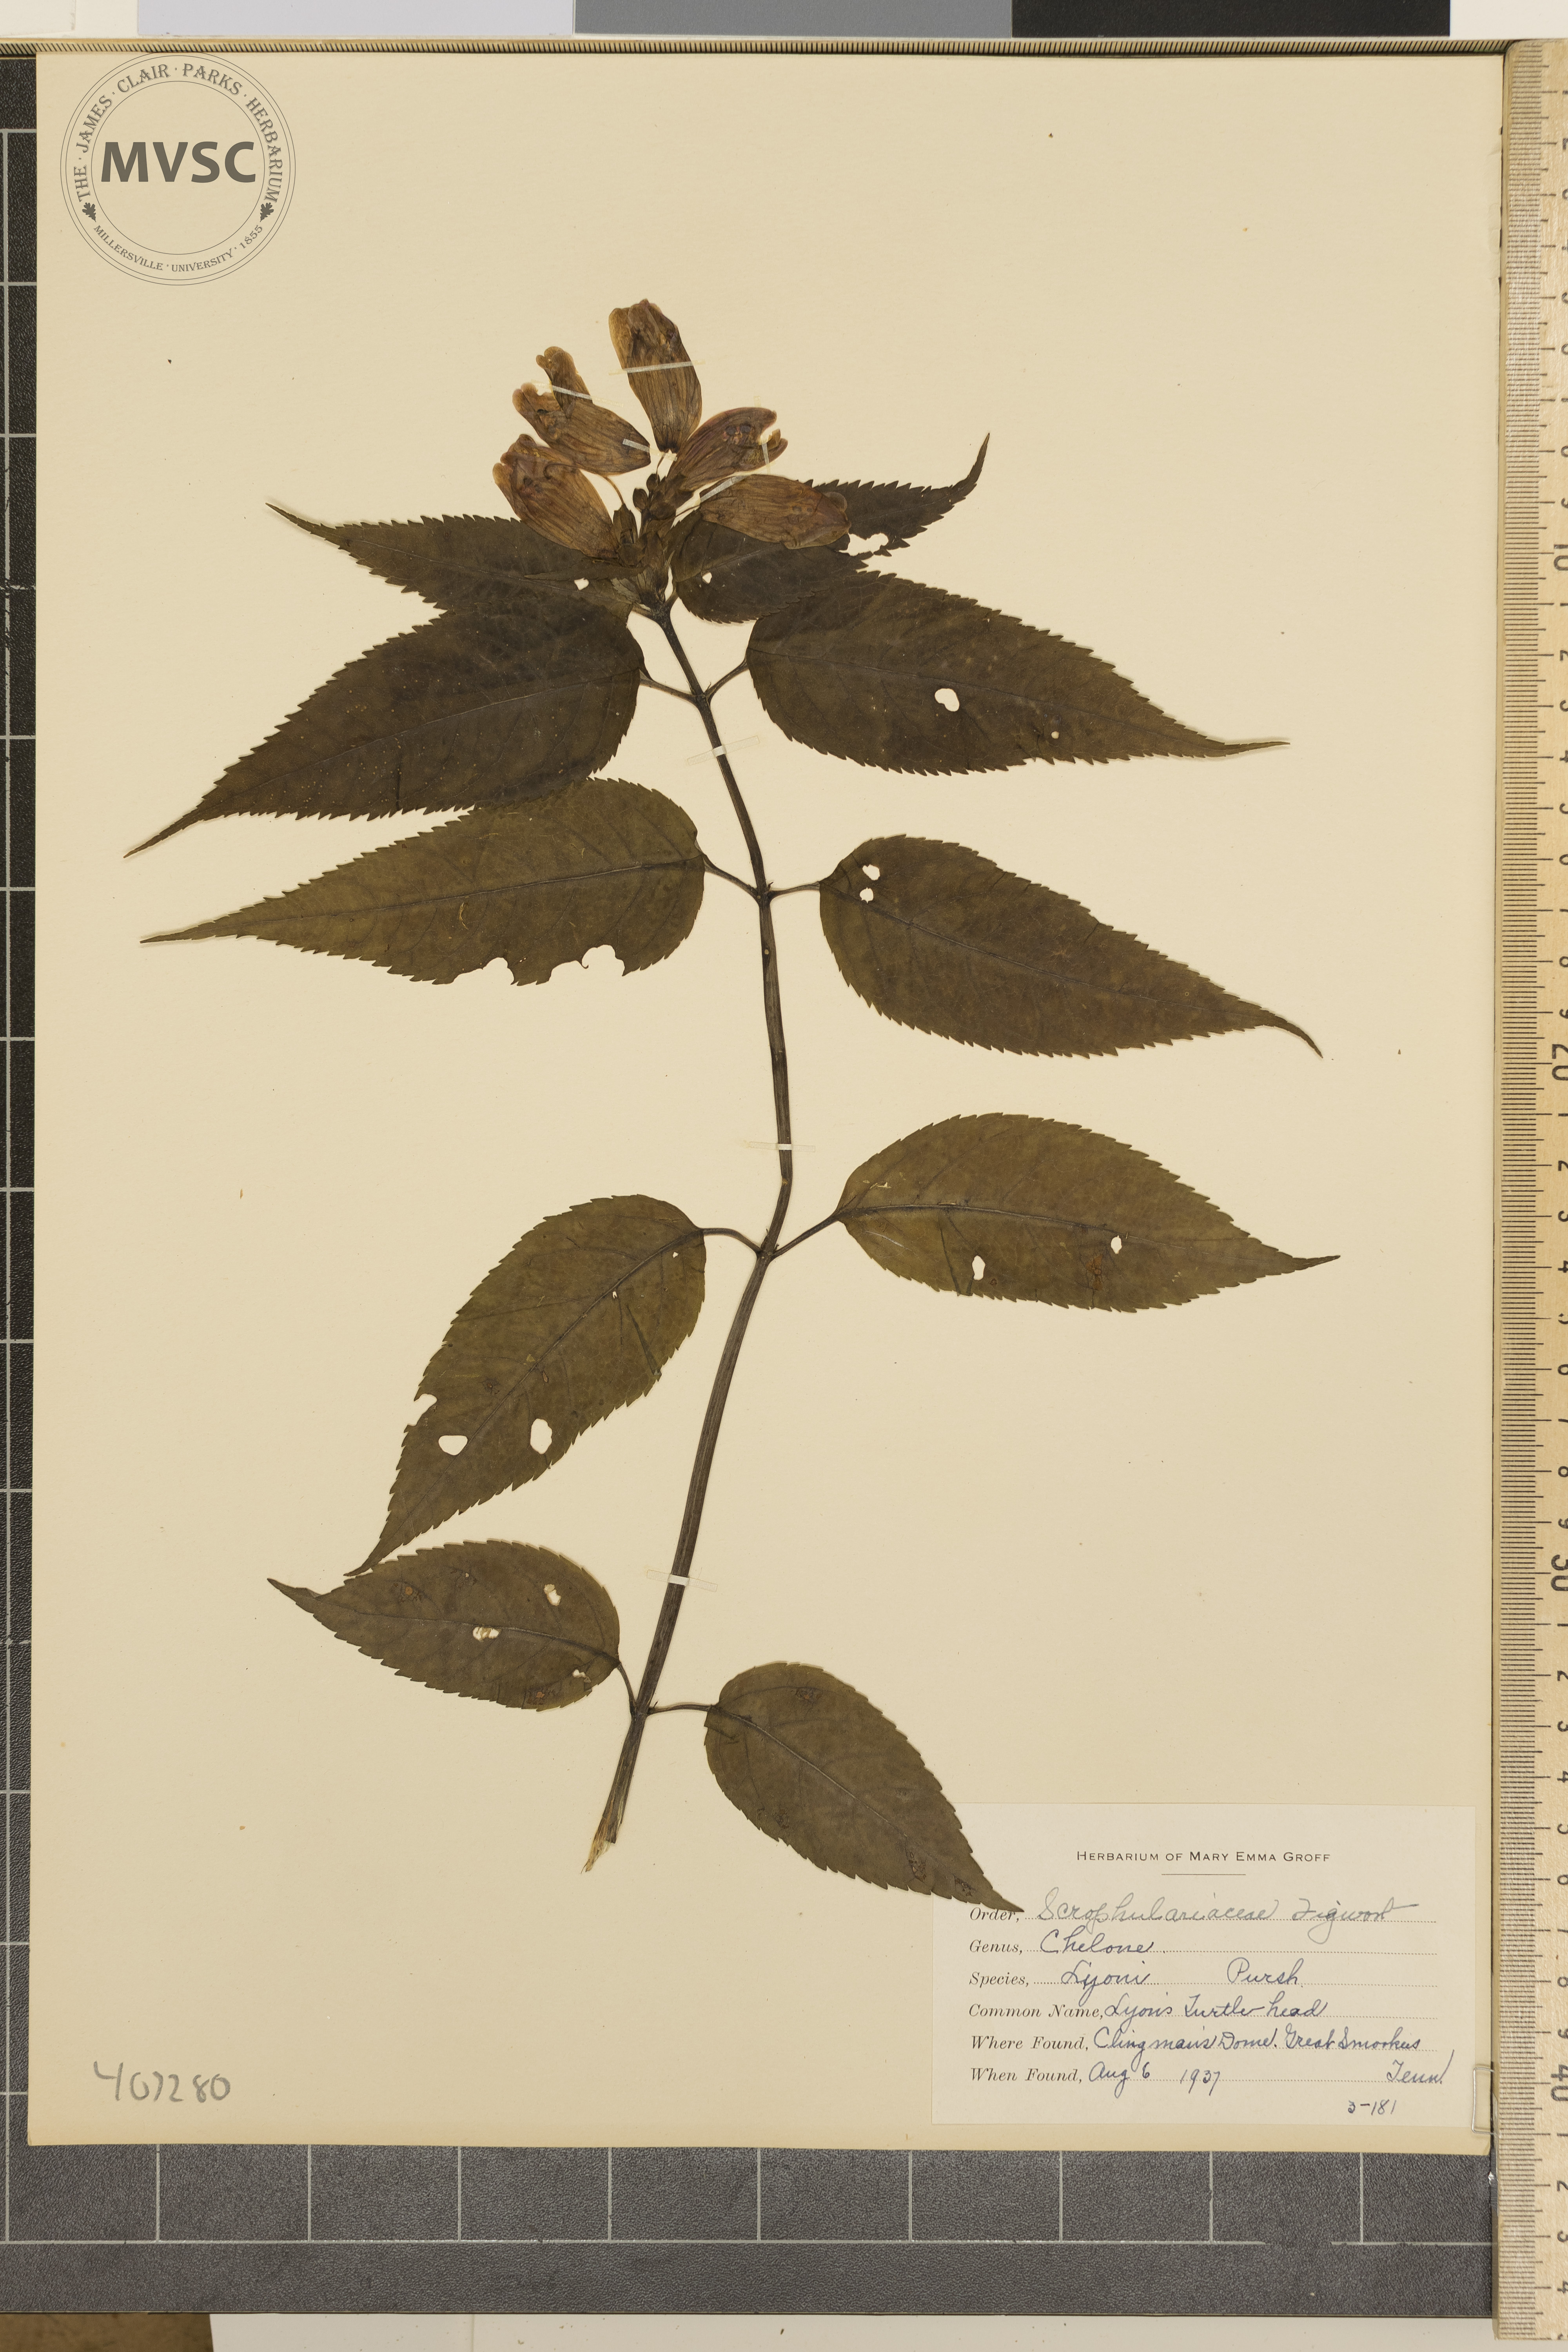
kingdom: Plantae
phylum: Tracheophyta
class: Magnoliopsida
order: Lamiales
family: Plantaginaceae
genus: Chelone
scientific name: Chelone lyonii
